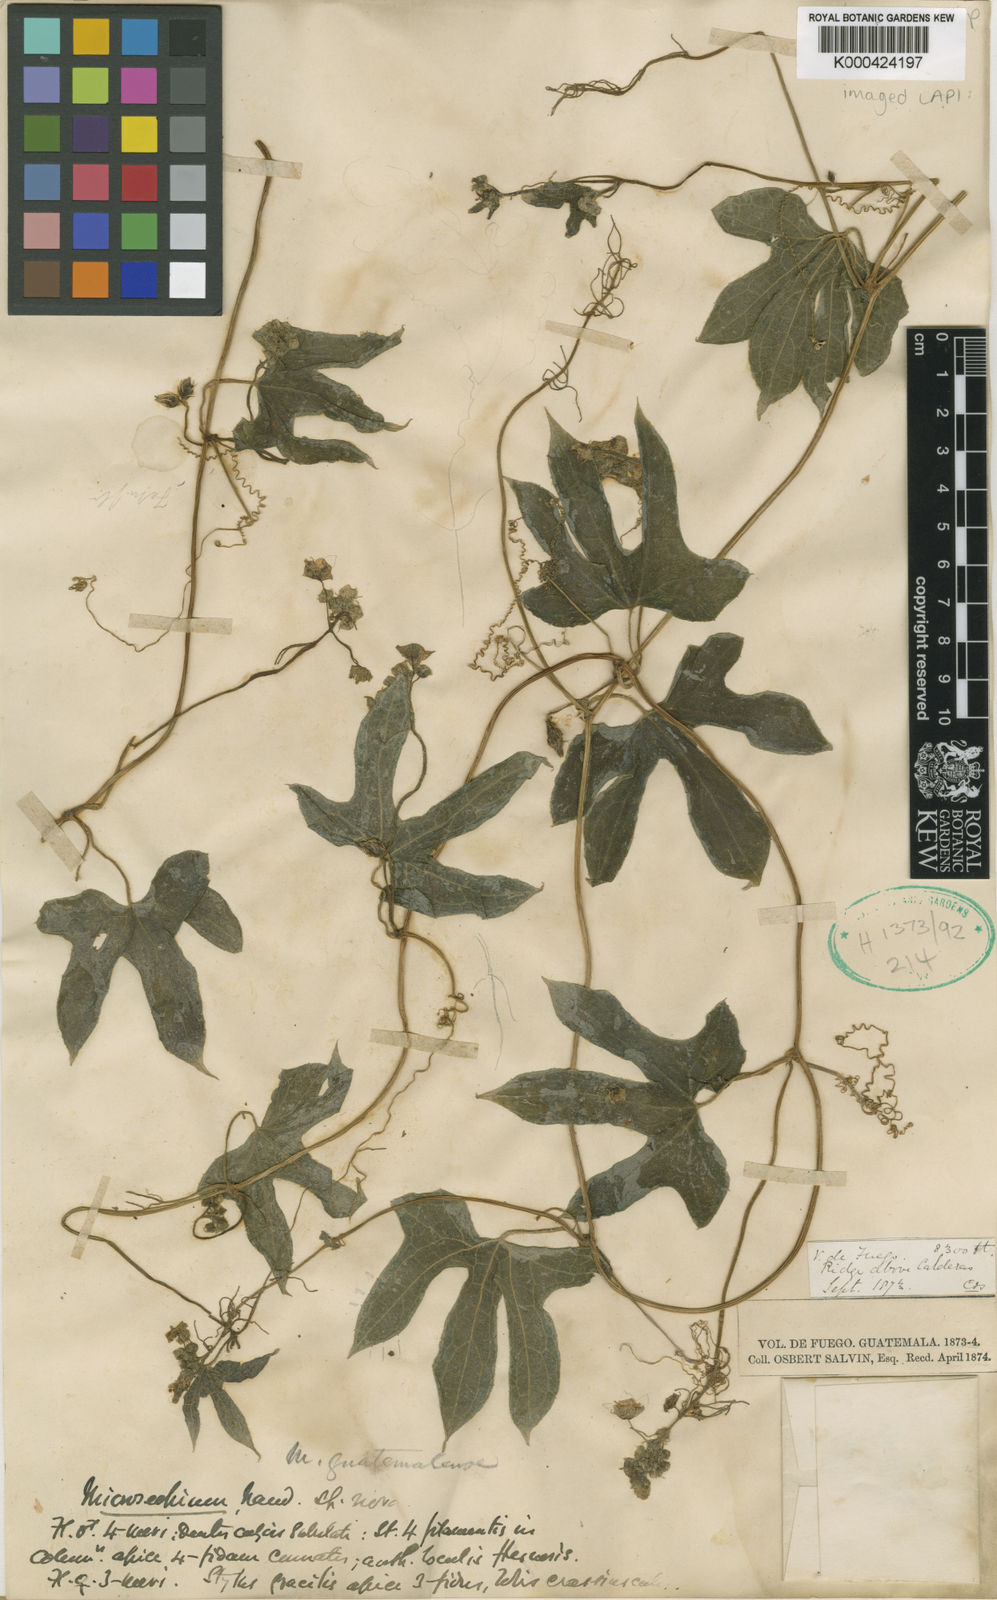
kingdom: Plantae
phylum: Tracheophyta
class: Magnoliopsida
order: Cucurbitales
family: Cucurbitaceae
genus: Microsechium
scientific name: Microsechium palmatum
